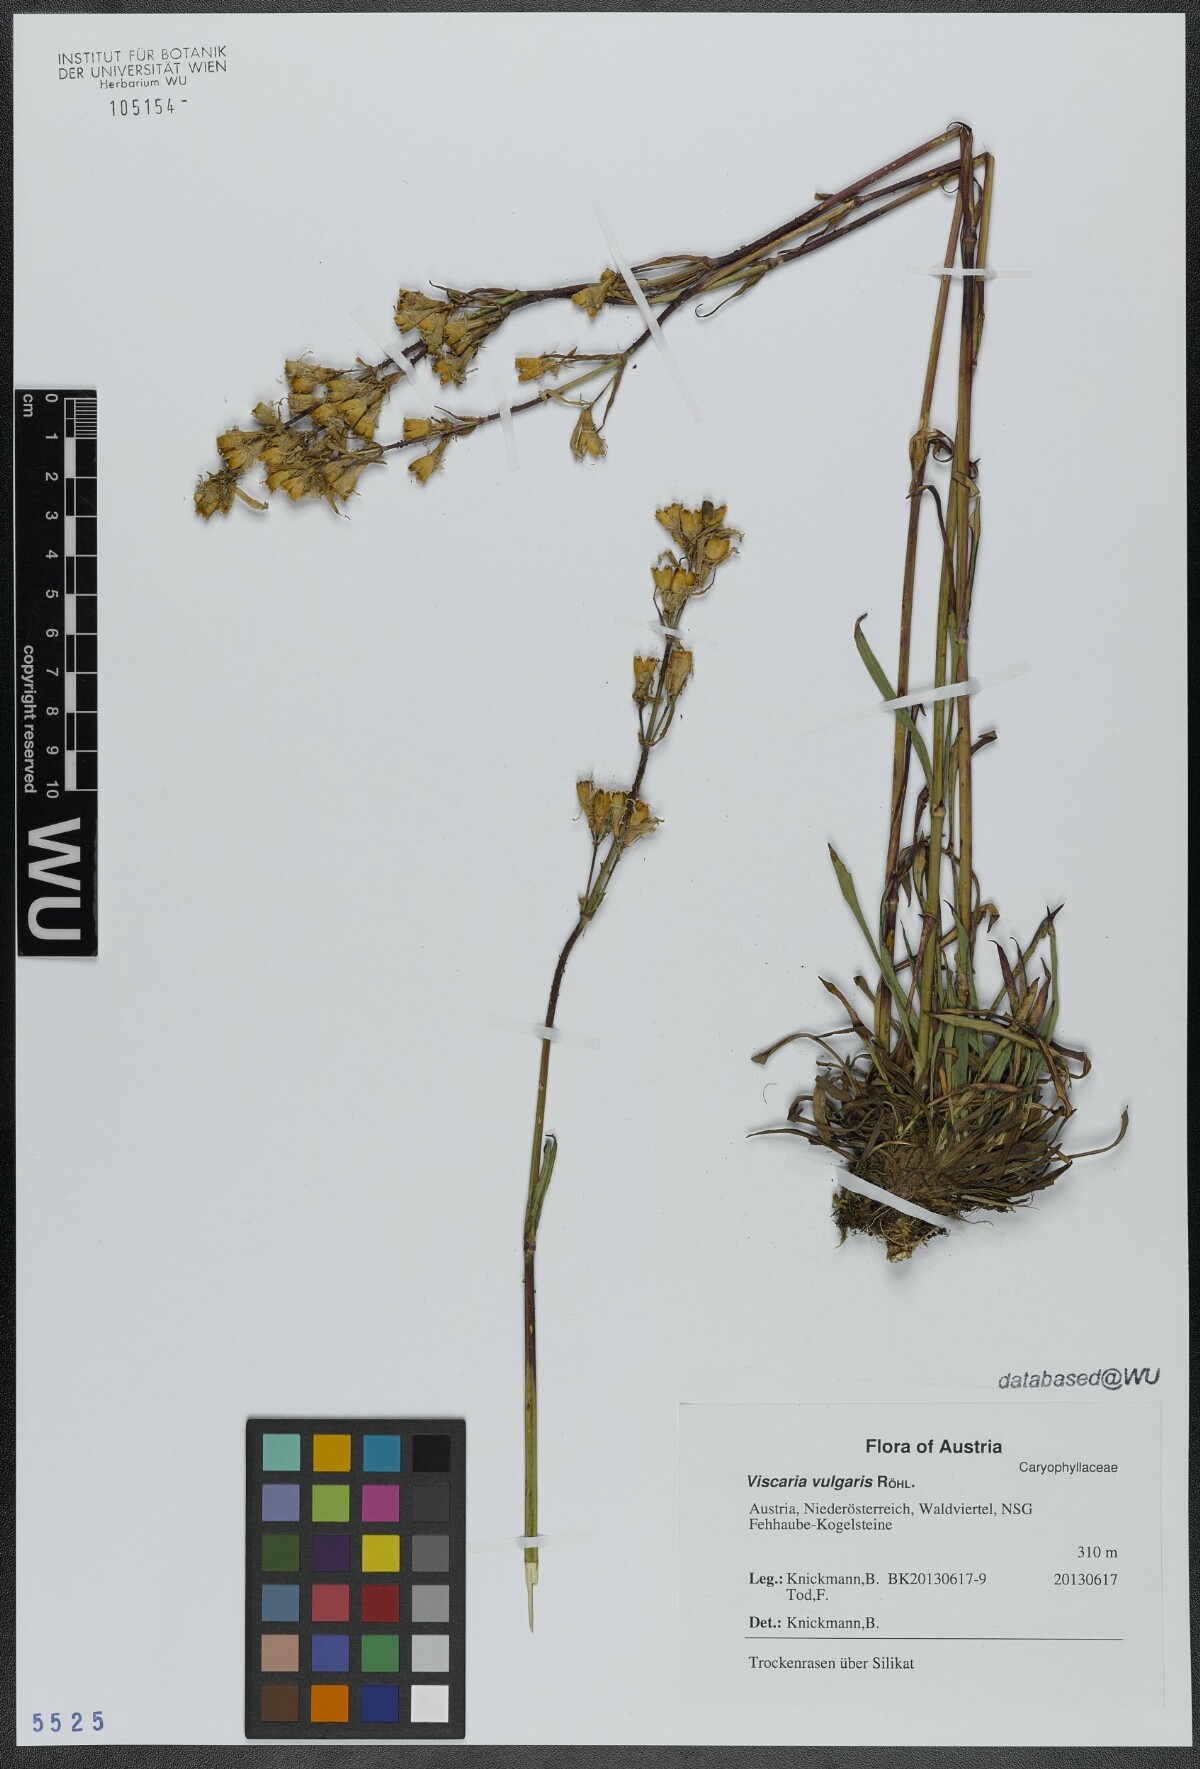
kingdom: Plantae
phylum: Tracheophyta
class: Magnoliopsida
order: Caryophyllales
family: Caryophyllaceae
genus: Viscaria
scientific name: Viscaria vulgaris
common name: Clammy campion
